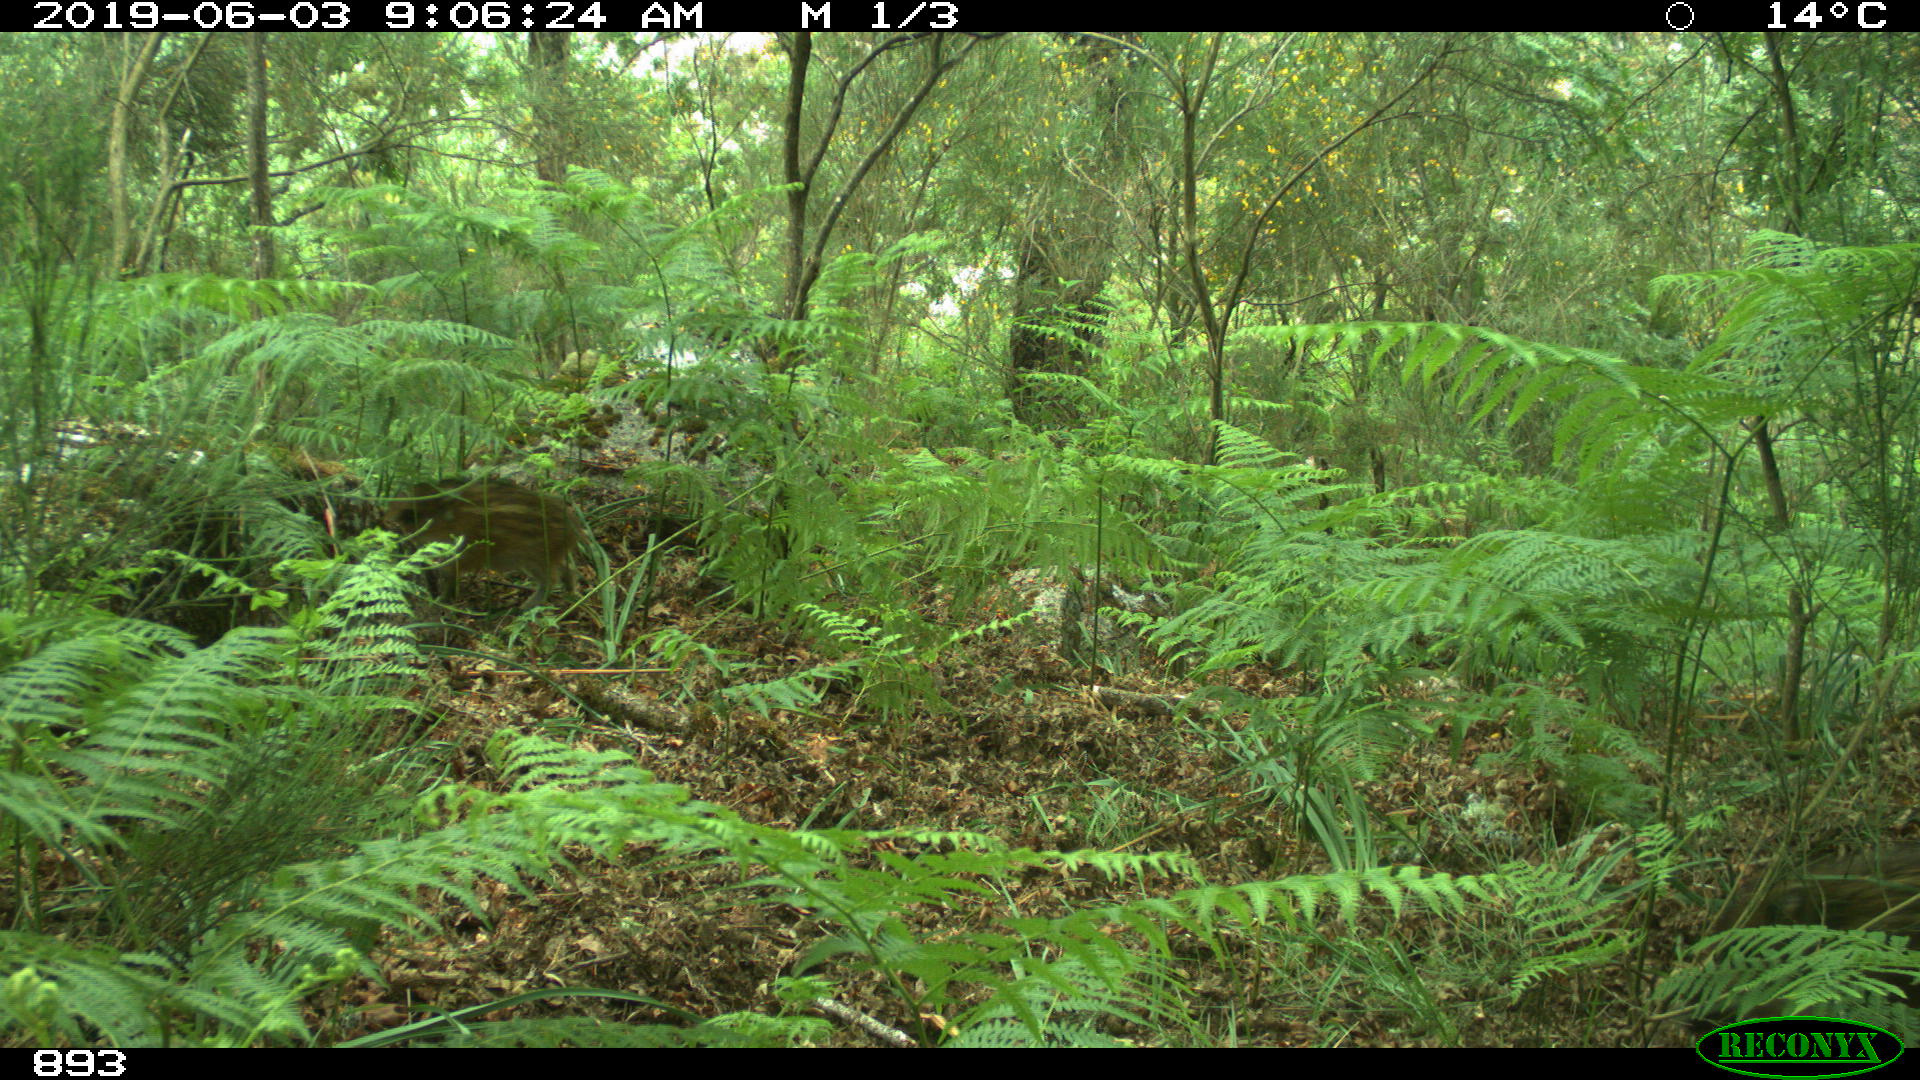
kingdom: Animalia
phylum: Chordata
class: Mammalia
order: Artiodactyla
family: Suidae
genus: Sus
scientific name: Sus scrofa
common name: Wild boar
